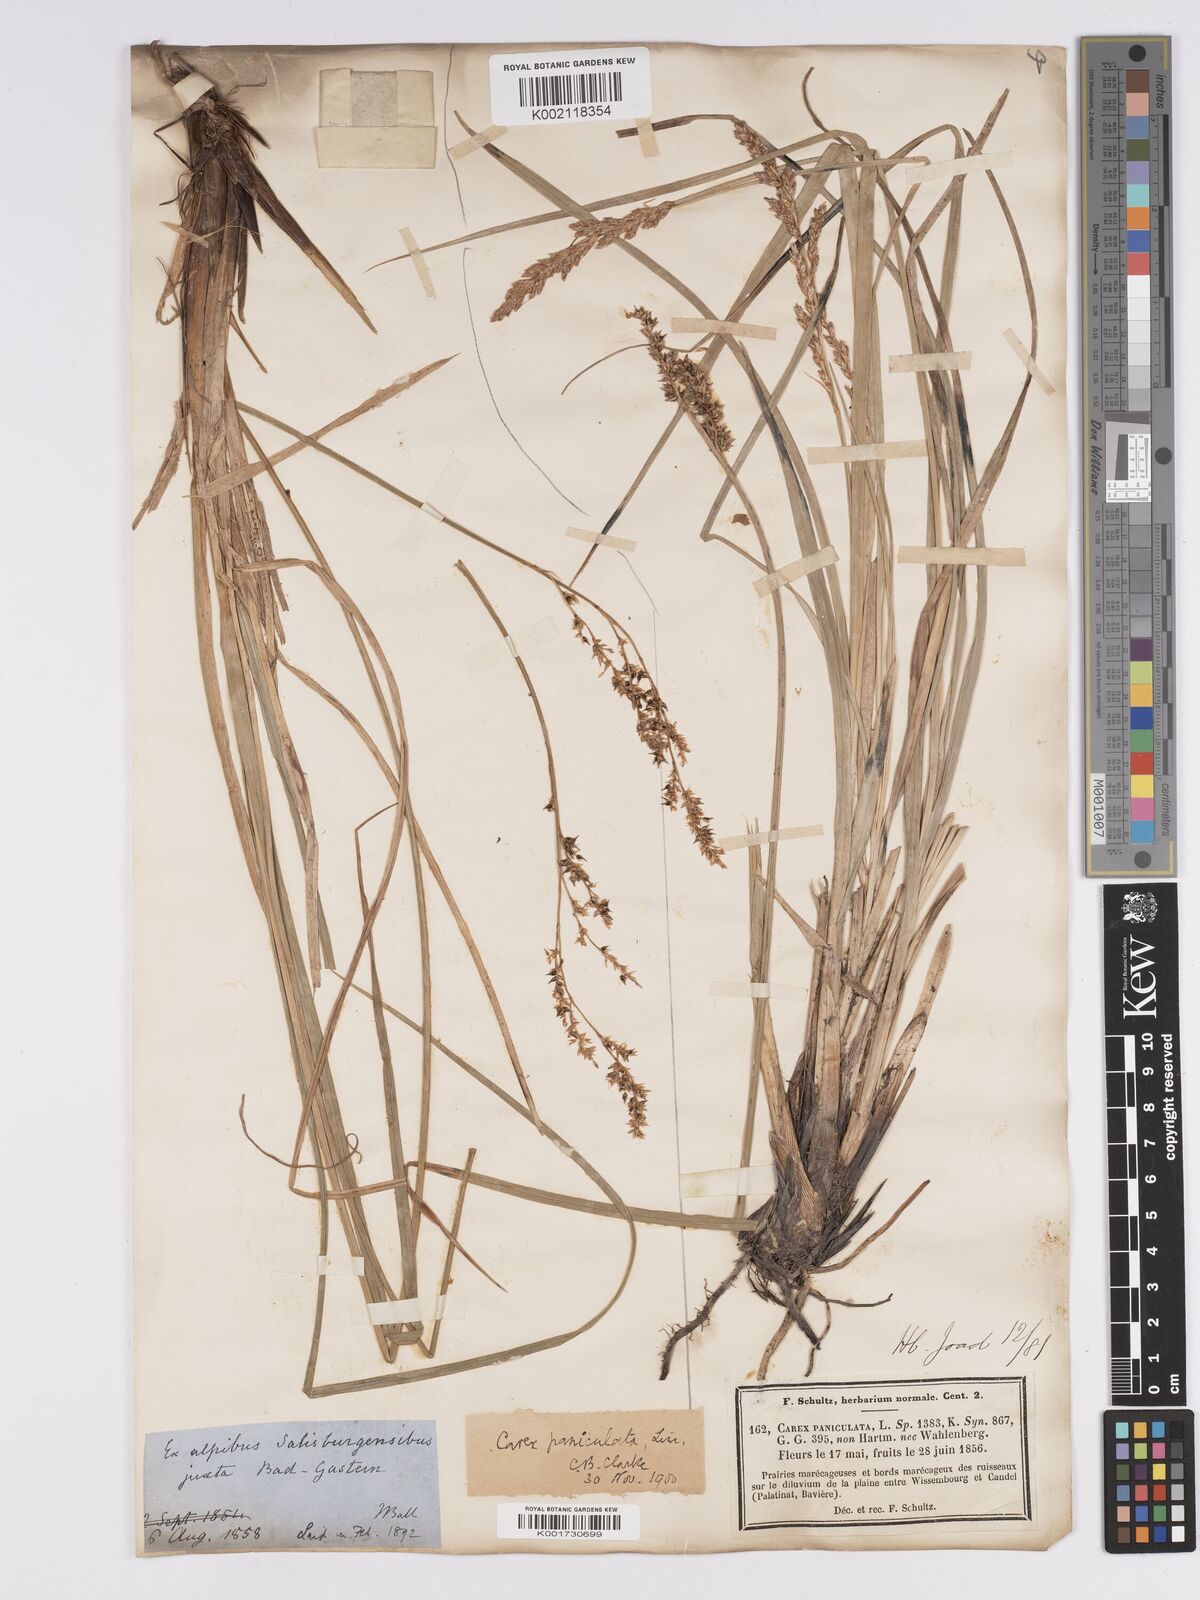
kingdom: Plantae
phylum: Tracheophyta
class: Liliopsida
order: Poales
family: Cyperaceae
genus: Carex
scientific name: Carex paniculata
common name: Greater tussock-sedge
